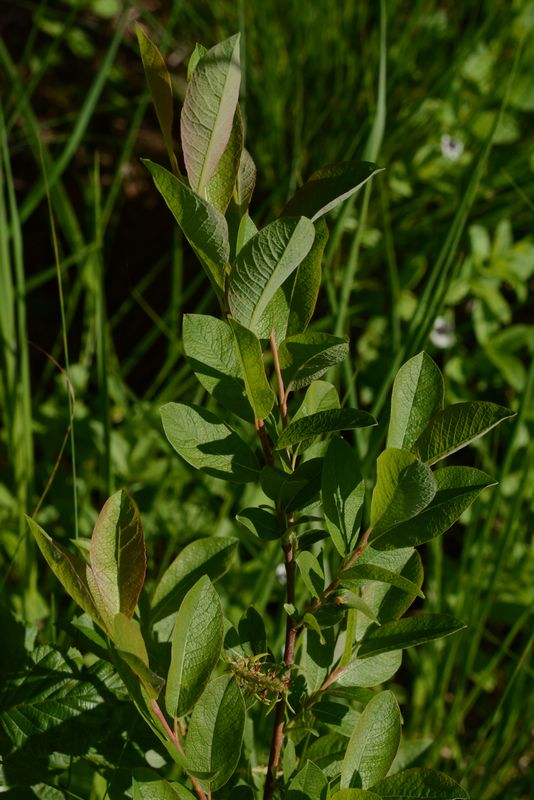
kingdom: Plantae
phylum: Tracheophyta
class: Magnoliopsida
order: Malpighiales
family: Salicaceae
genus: Salix
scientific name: Salix starkeana
